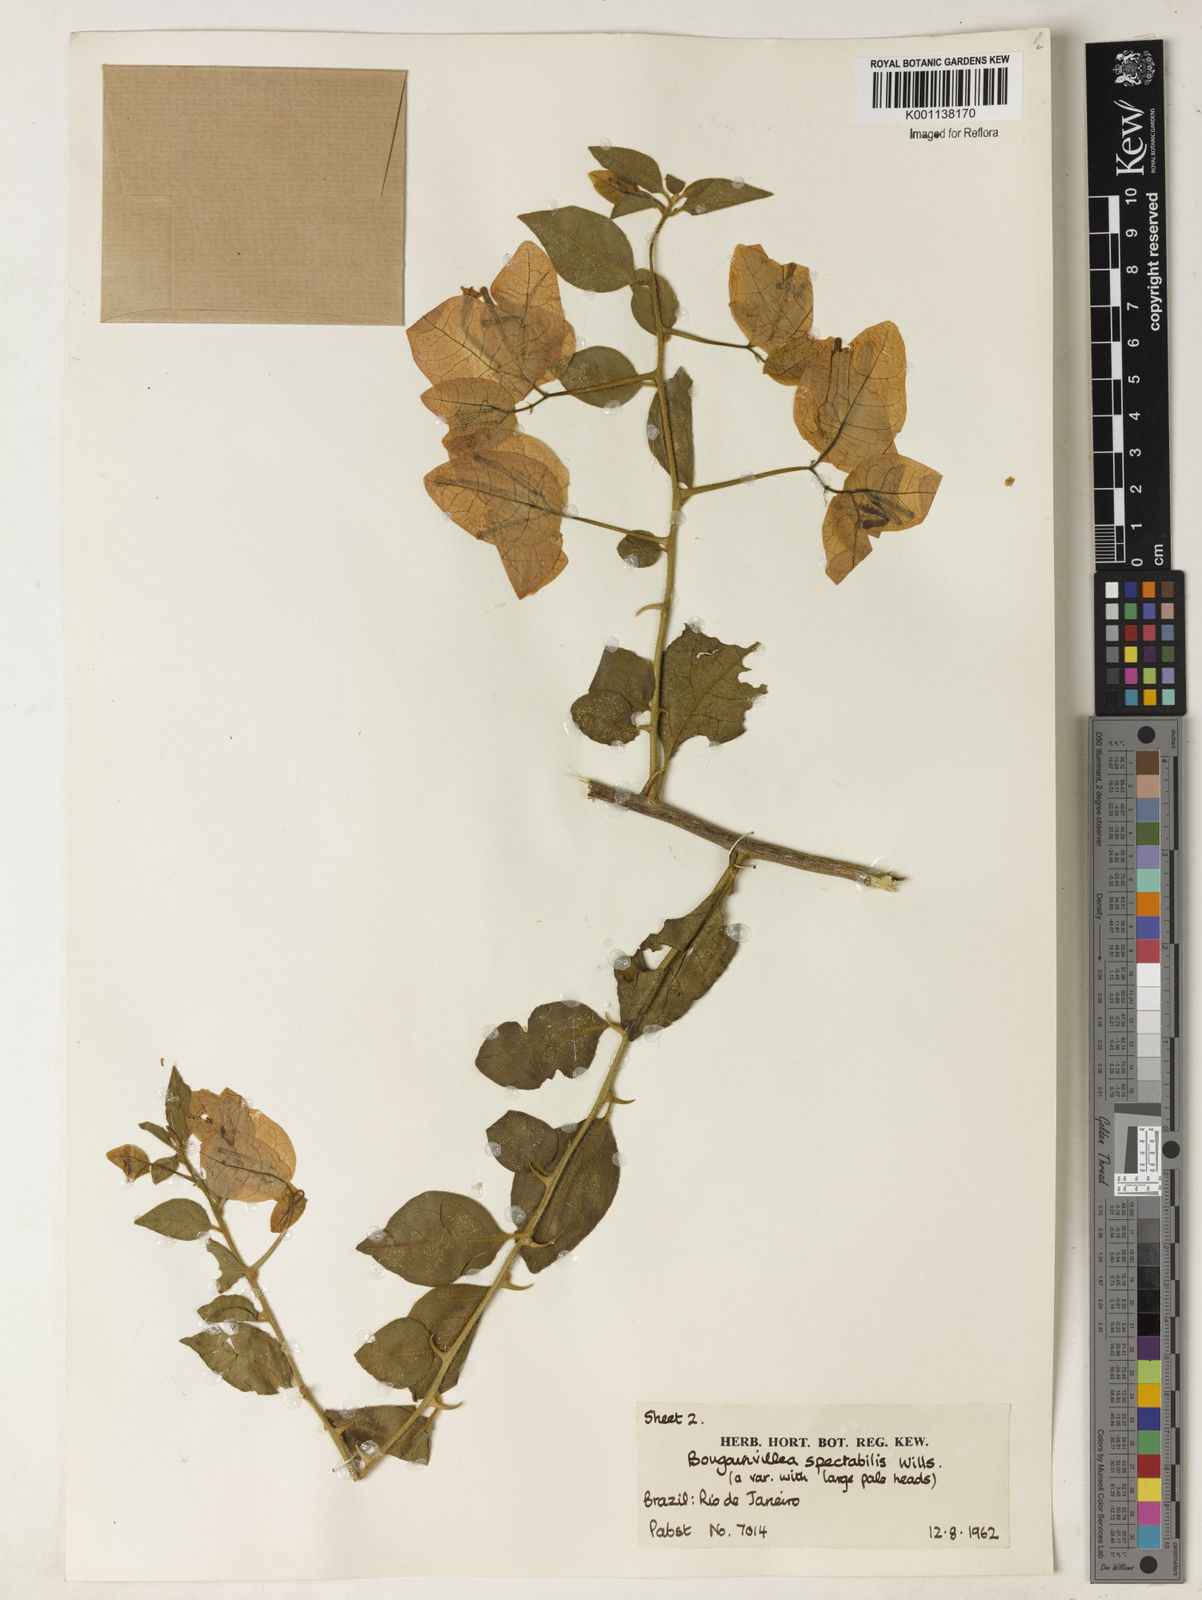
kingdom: Plantae
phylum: Tracheophyta
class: Magnoliopsida
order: Caryophyllales
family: Nyctaginaceae
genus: Bougainvillea
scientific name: Bougainvillea spectabilis
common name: Great bougainvillea
